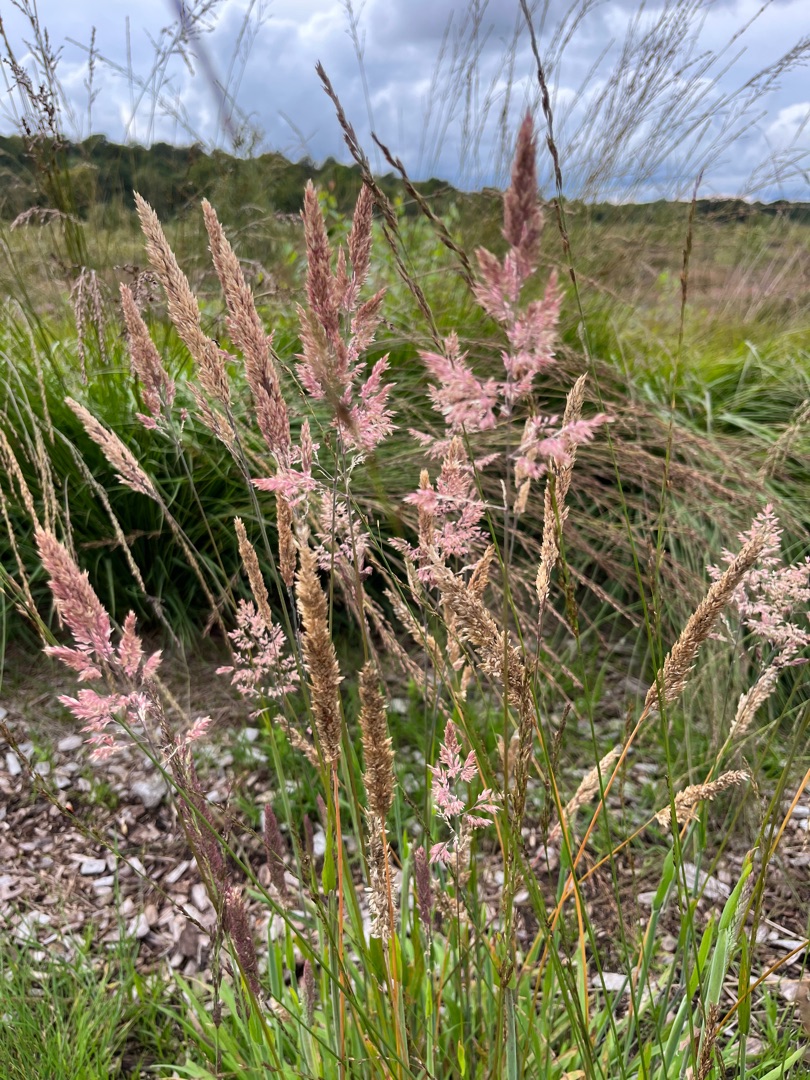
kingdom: Plantae
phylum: Tracheophyta
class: Liliopsida
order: Poales
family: Poaceae
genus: Holcus
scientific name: Holcus lanatus
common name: Fløjlsgræs
